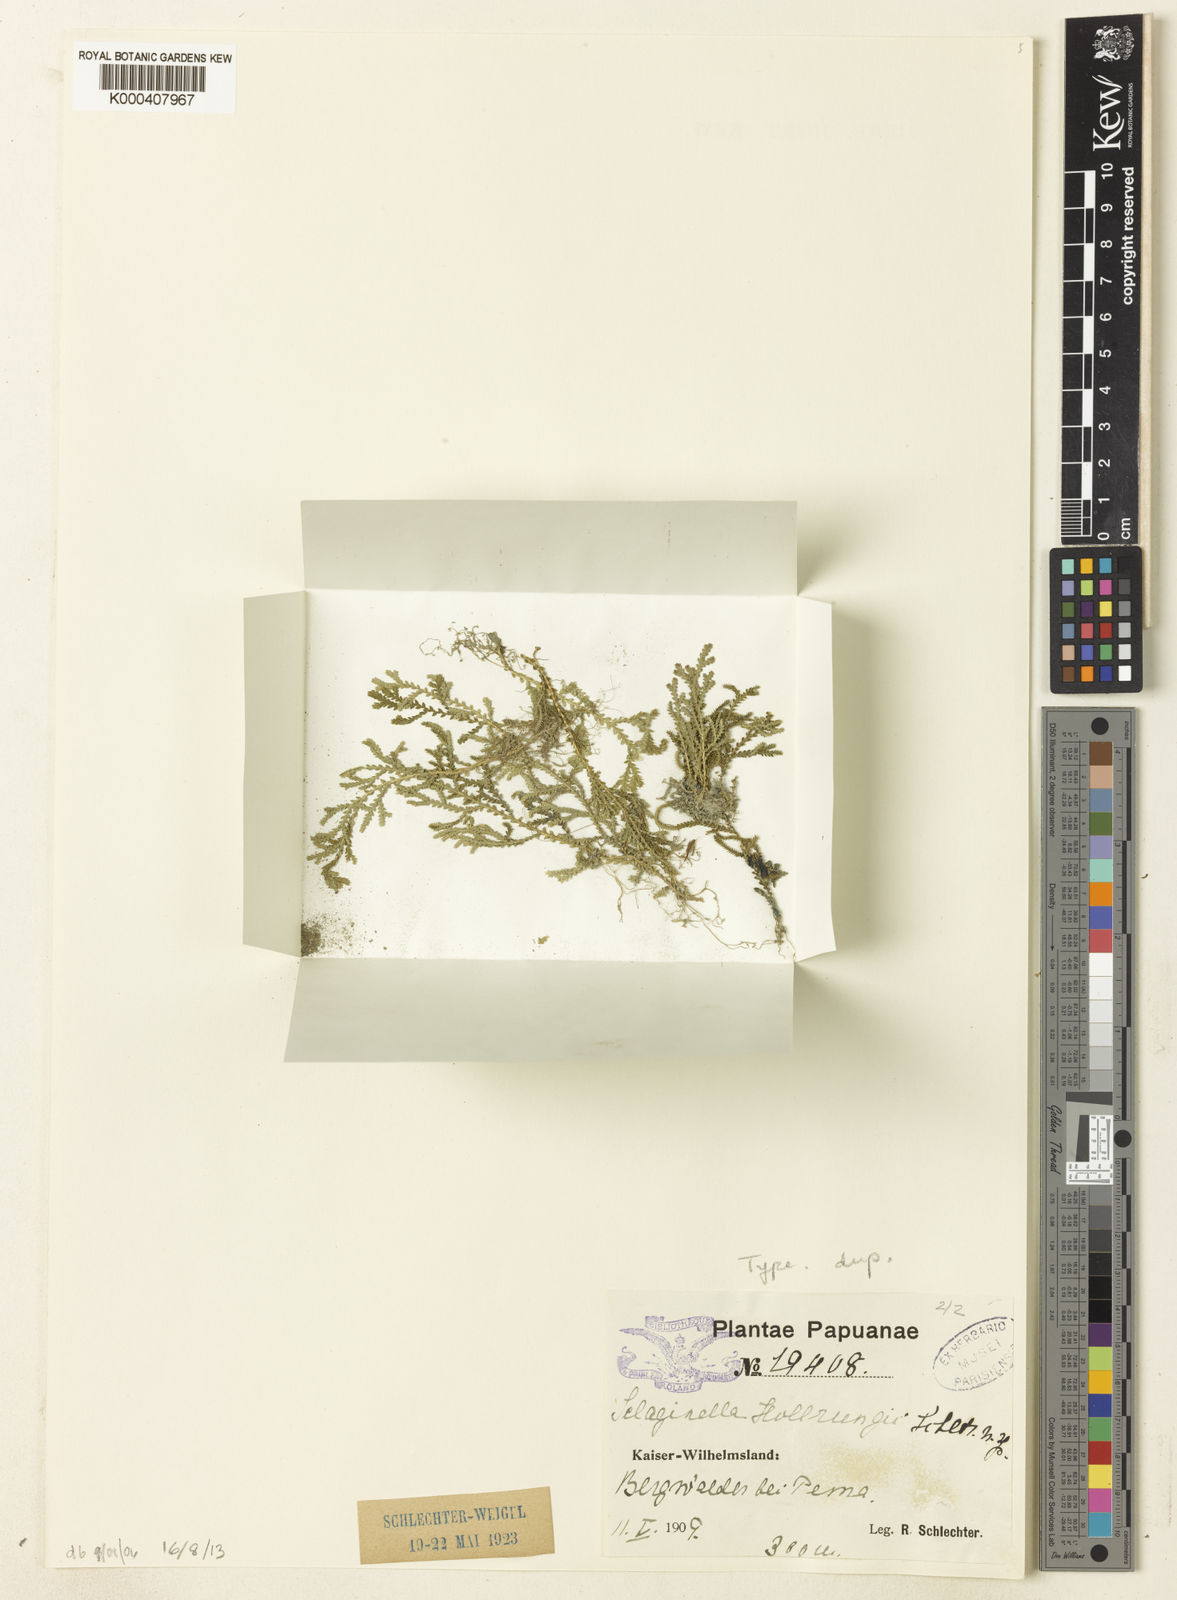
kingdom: Plantae
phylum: Tracheophyta
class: Lycopodiopsida
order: Selaginellales
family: Selaginellaceae
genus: Selaginella
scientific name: Selaginella hollrungii
